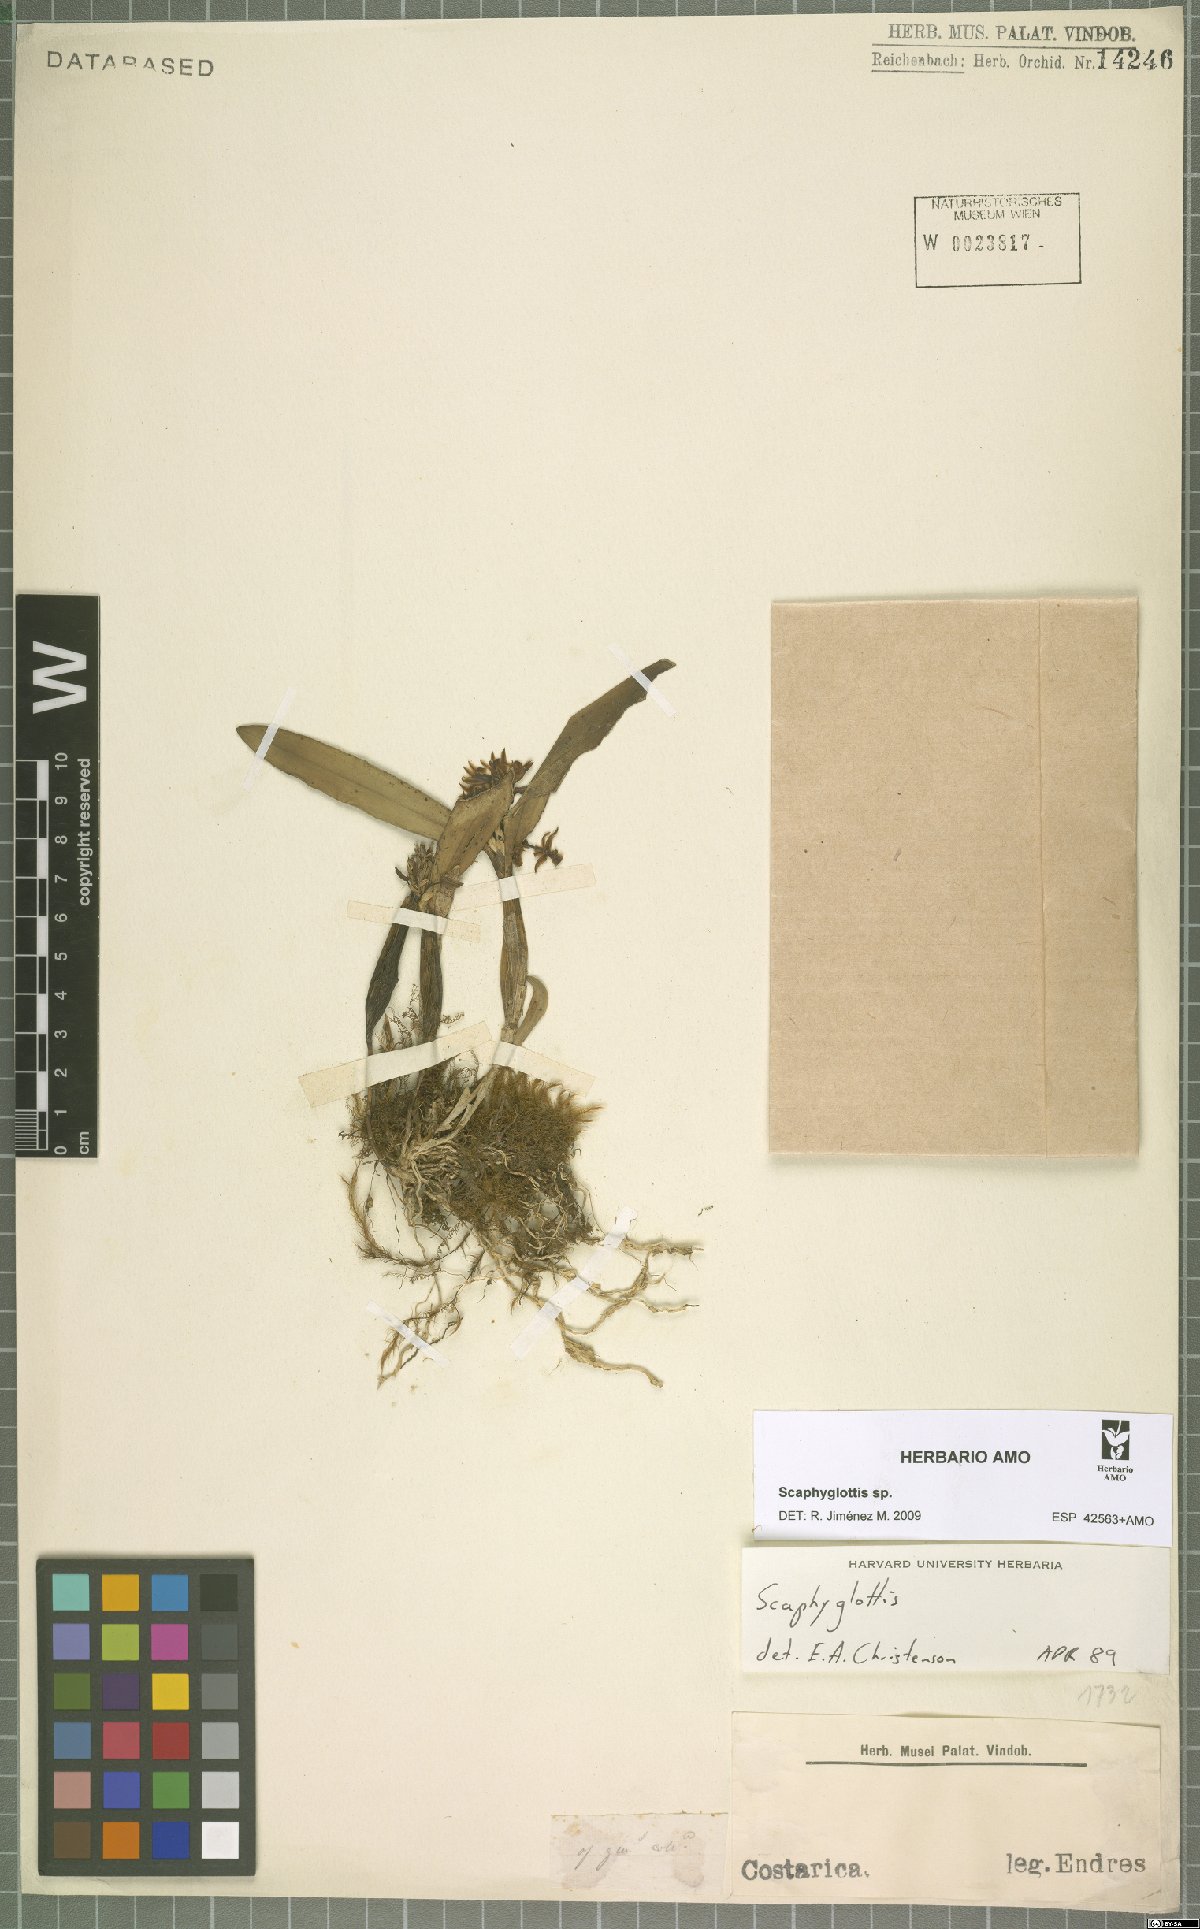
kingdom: Plantae
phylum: Tracheophyta
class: Liliopsida
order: Asparagales
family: Orchidaceae
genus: Scaphyglottis
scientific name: Scaphyglottis
